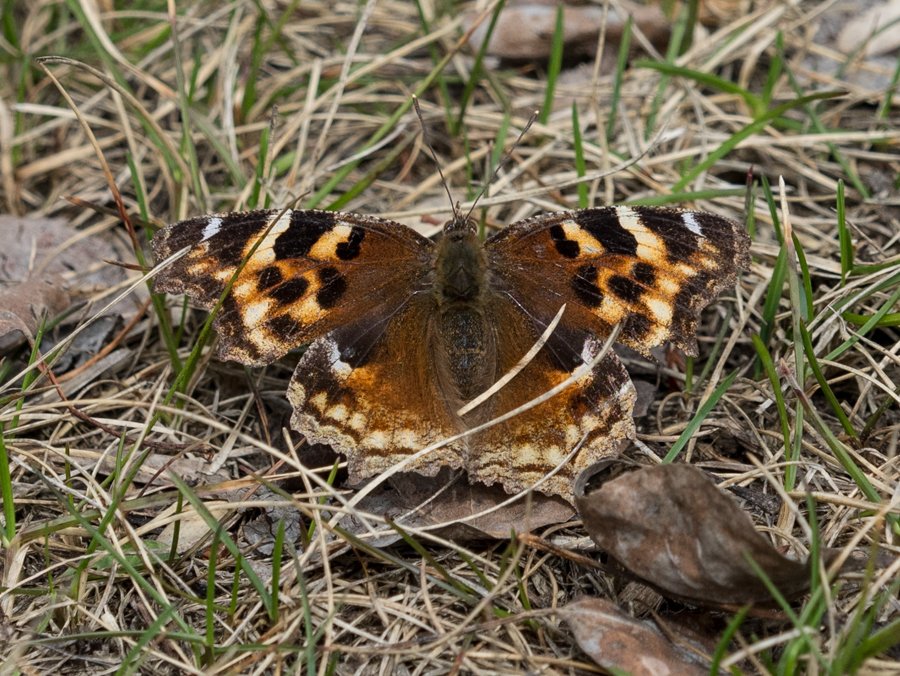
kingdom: Animalia
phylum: Arthropoda
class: Insecta
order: Lepidoptera
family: Nymphalidae
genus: Polygonia
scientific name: Polygonia vaualbum
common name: Compton Tortoiseshell
